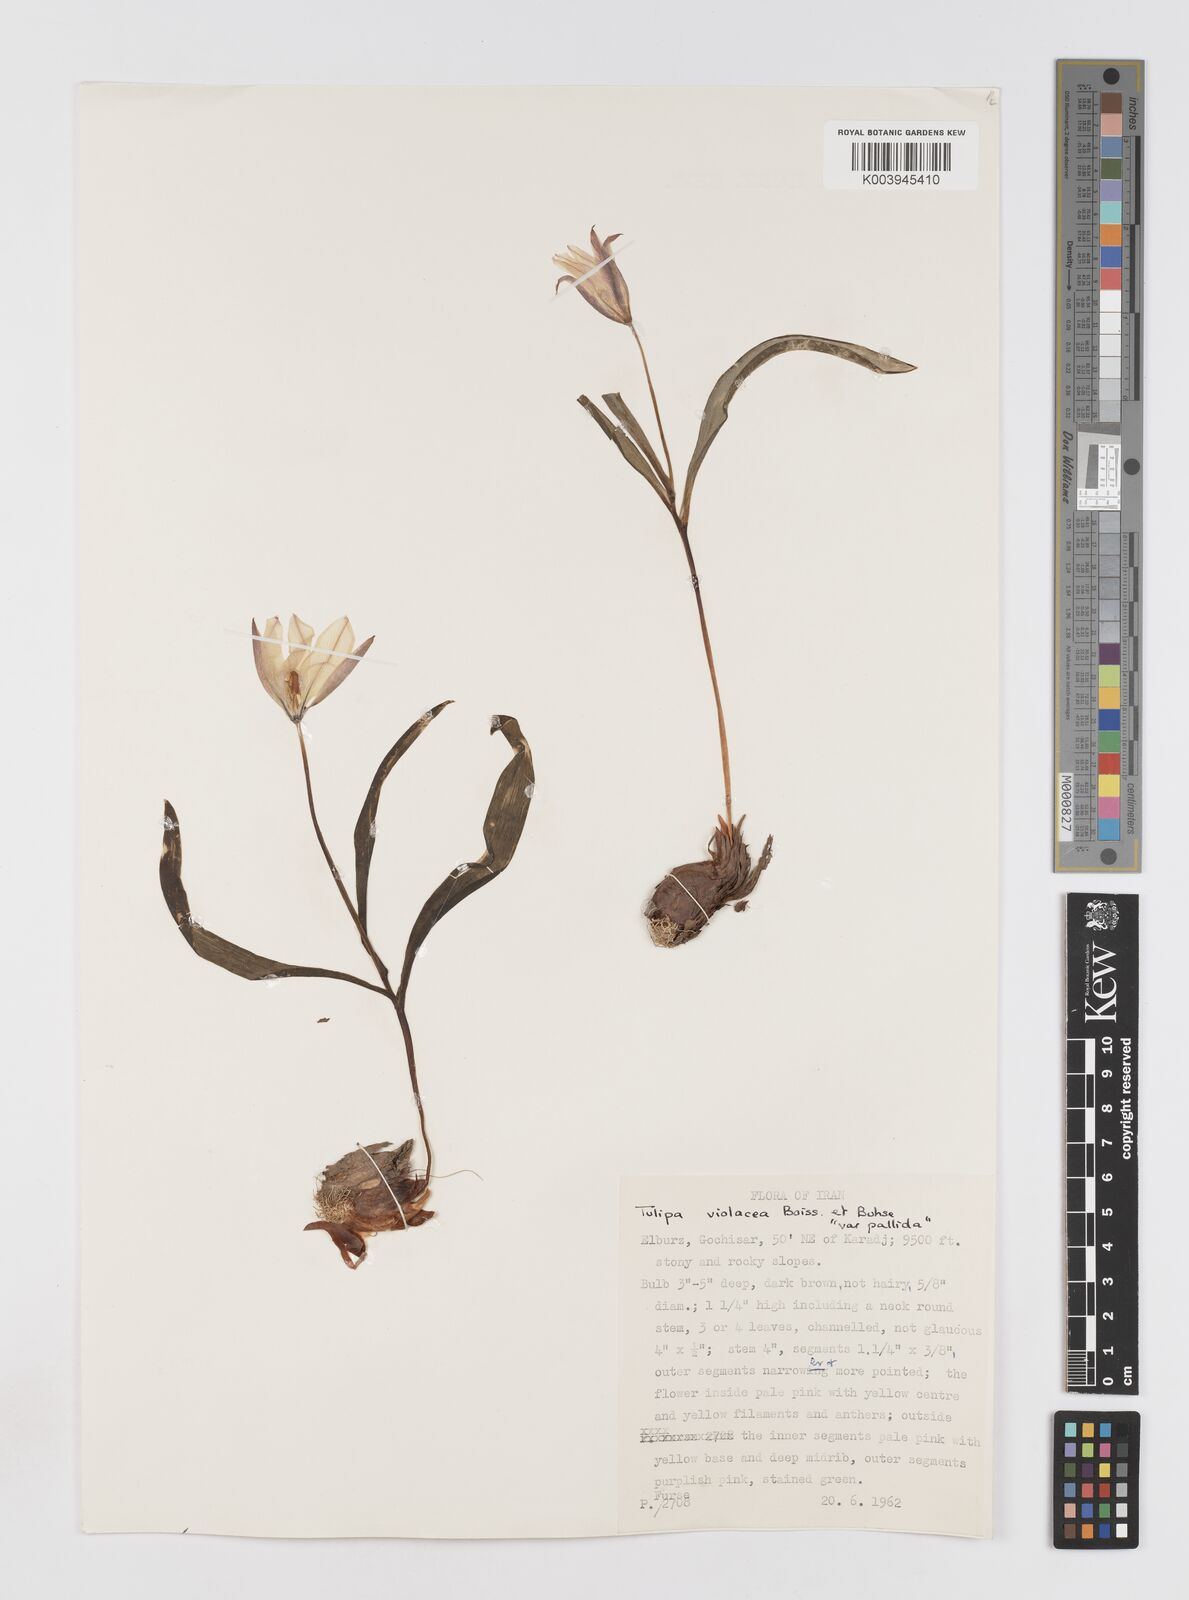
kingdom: Plantae
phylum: Tracheophyta
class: Liliopsida
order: Liliales
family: Liliaceae
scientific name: Liliaceae
